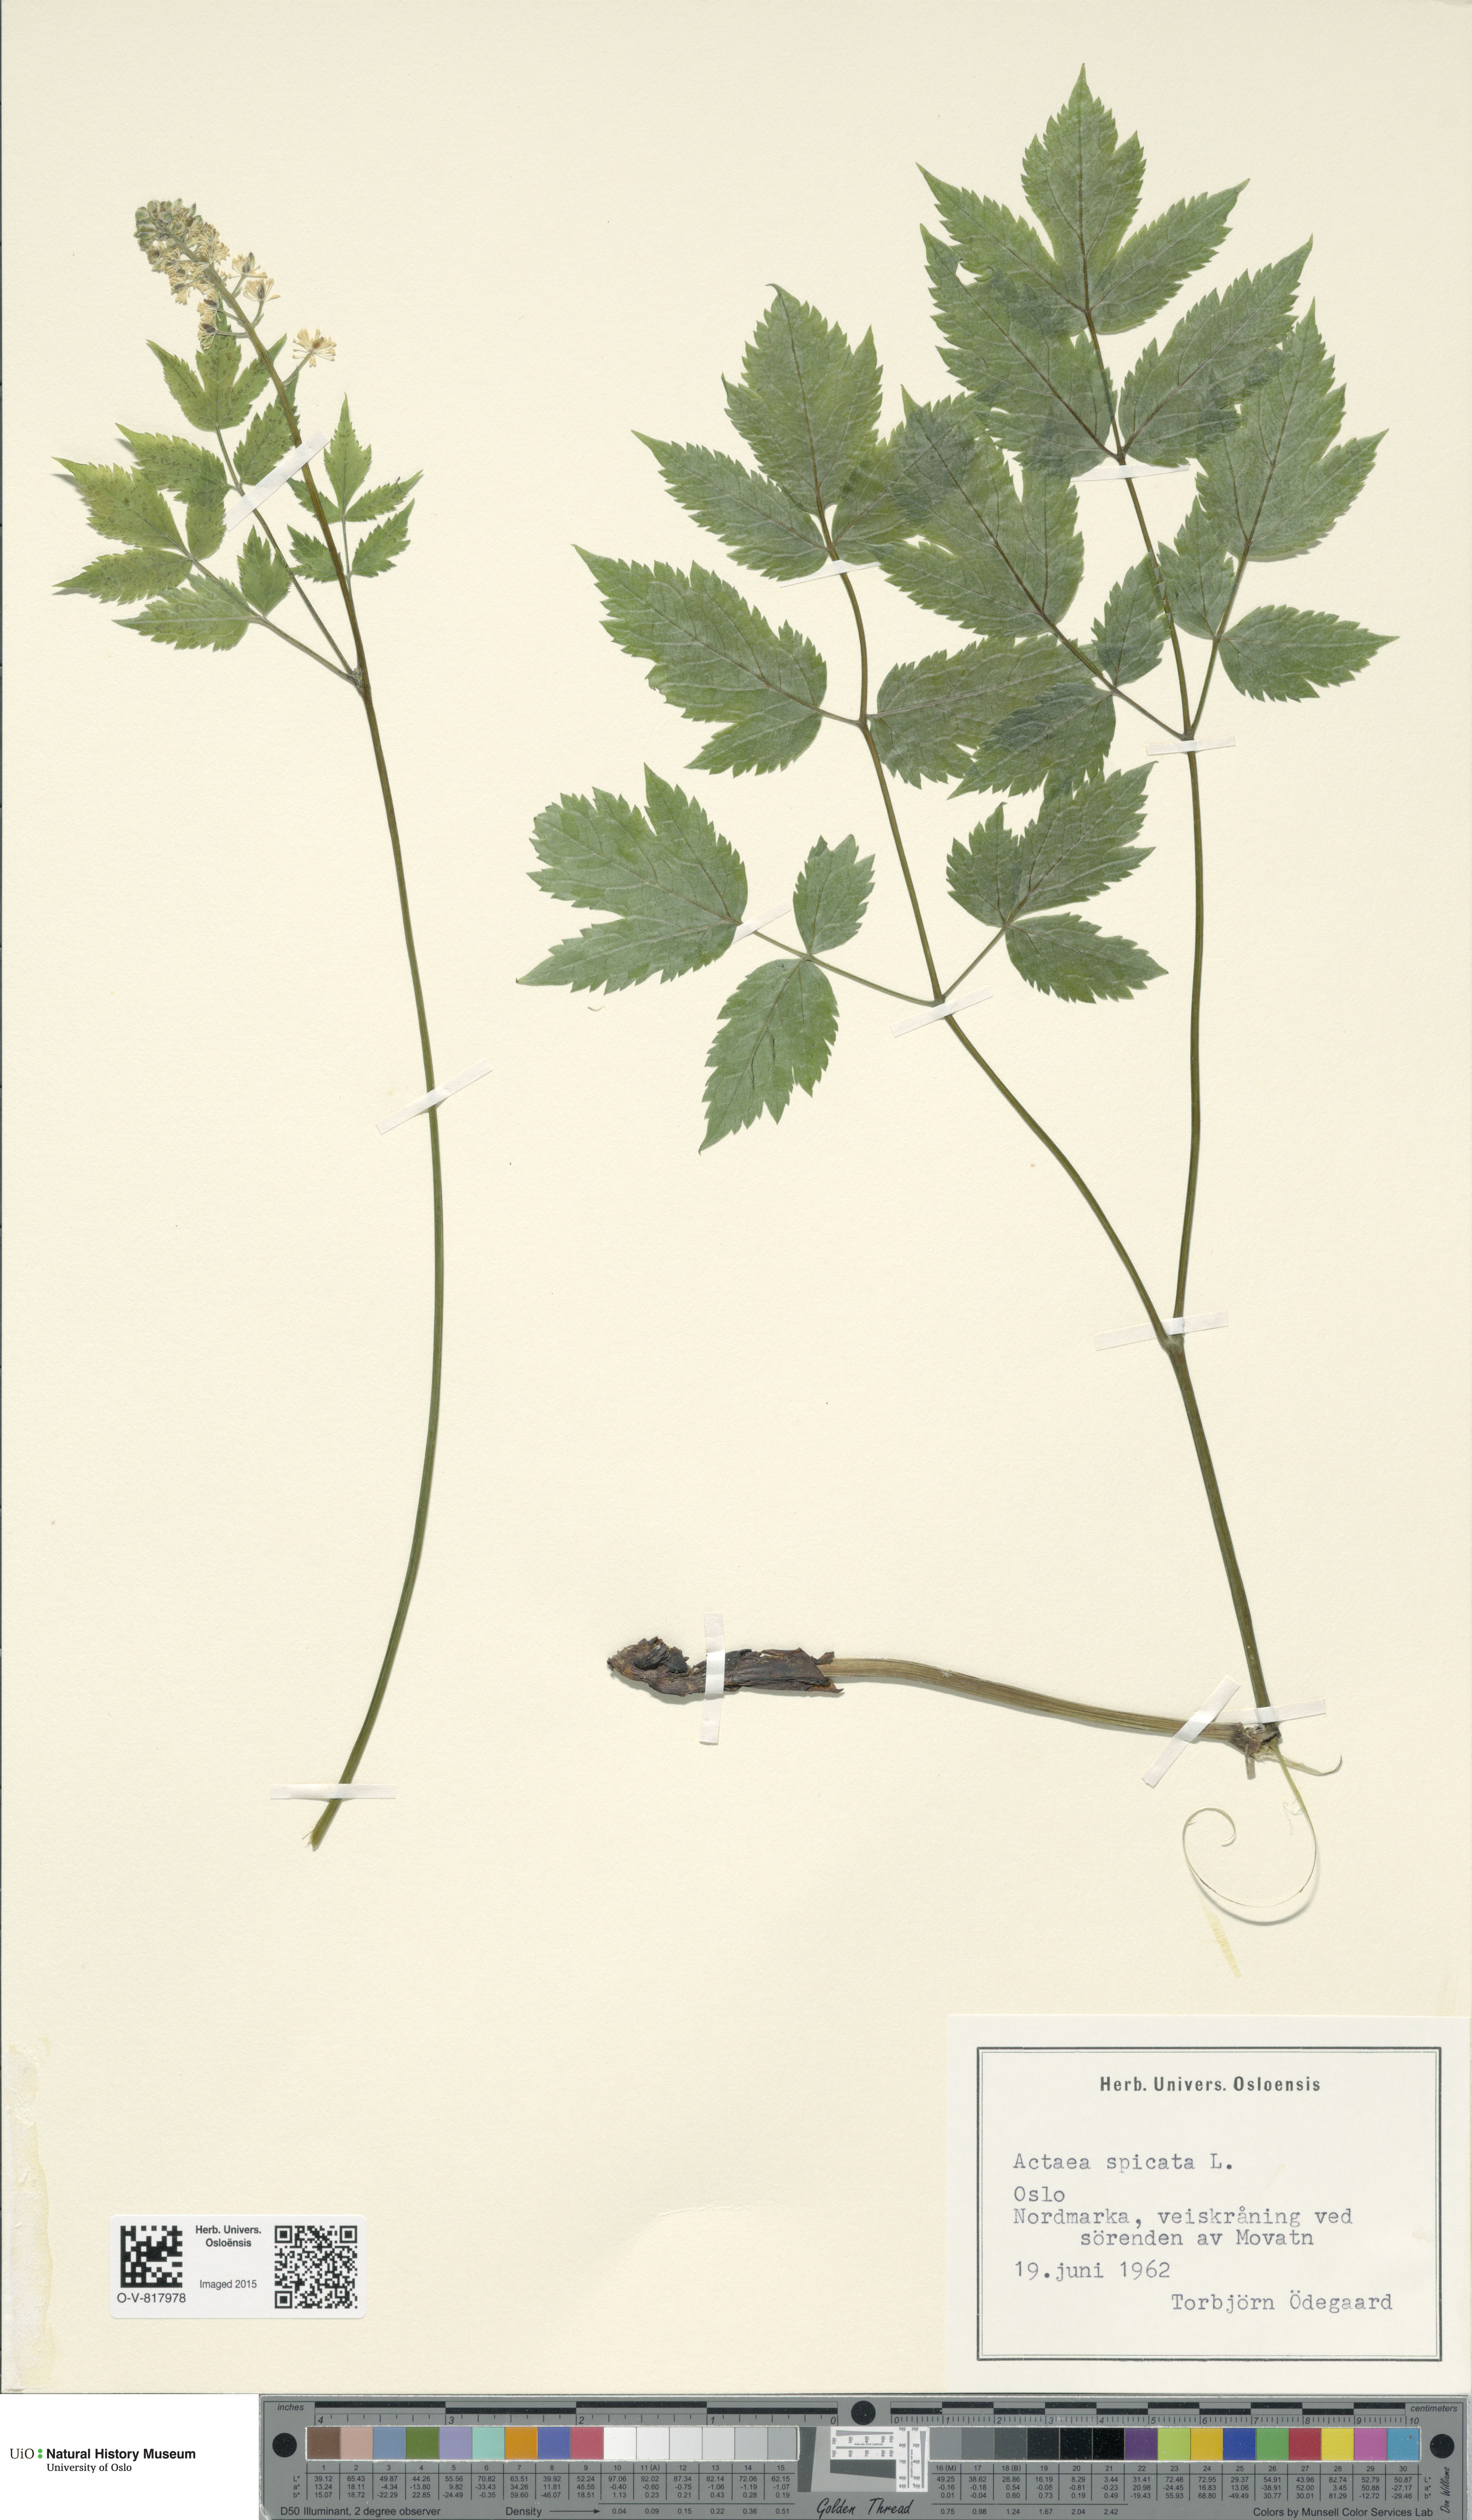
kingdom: Plantae
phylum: Tracheophyta
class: Magnoliopsida
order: Ranunculales
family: Ranunculaceae
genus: Actaea
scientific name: Actaea spicata
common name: Baneberry
